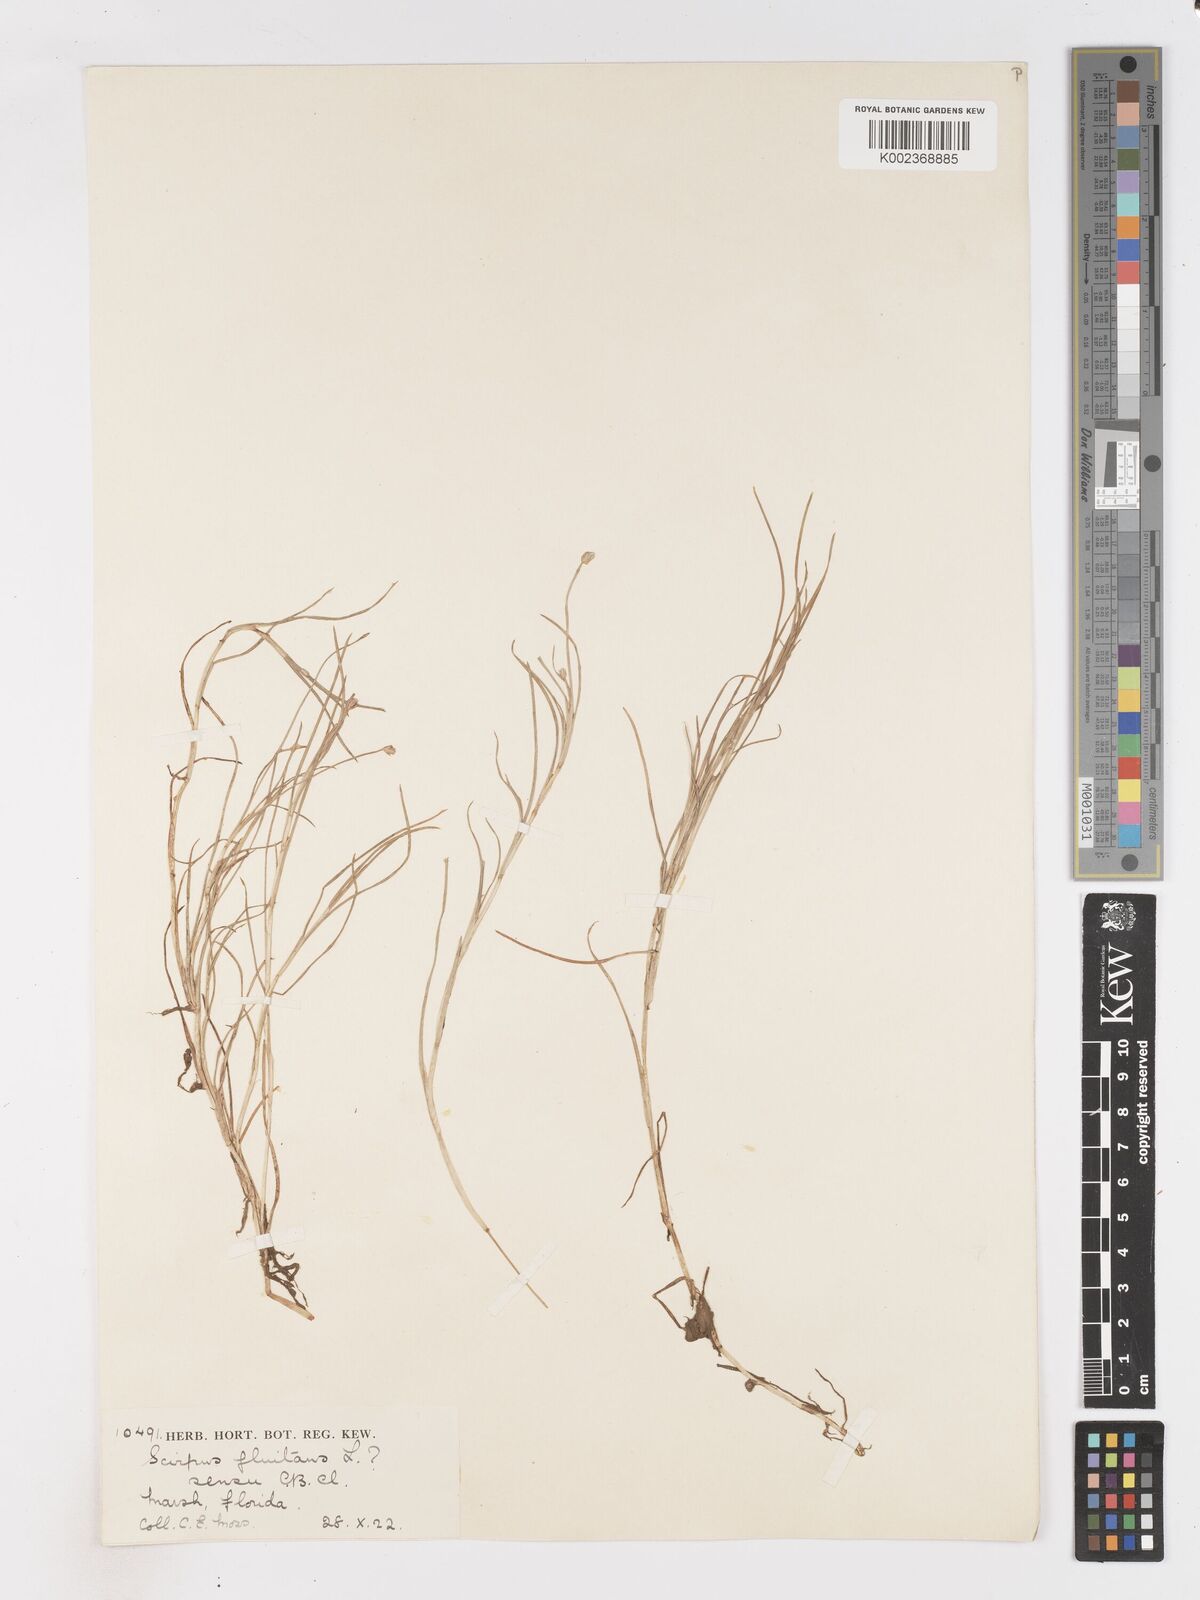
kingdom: Plantae
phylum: Tracheophyta
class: Liliopsida
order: Poales
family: Cyperaceae
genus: Isolepis
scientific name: Isolepis fluitans
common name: Floating club-rush
